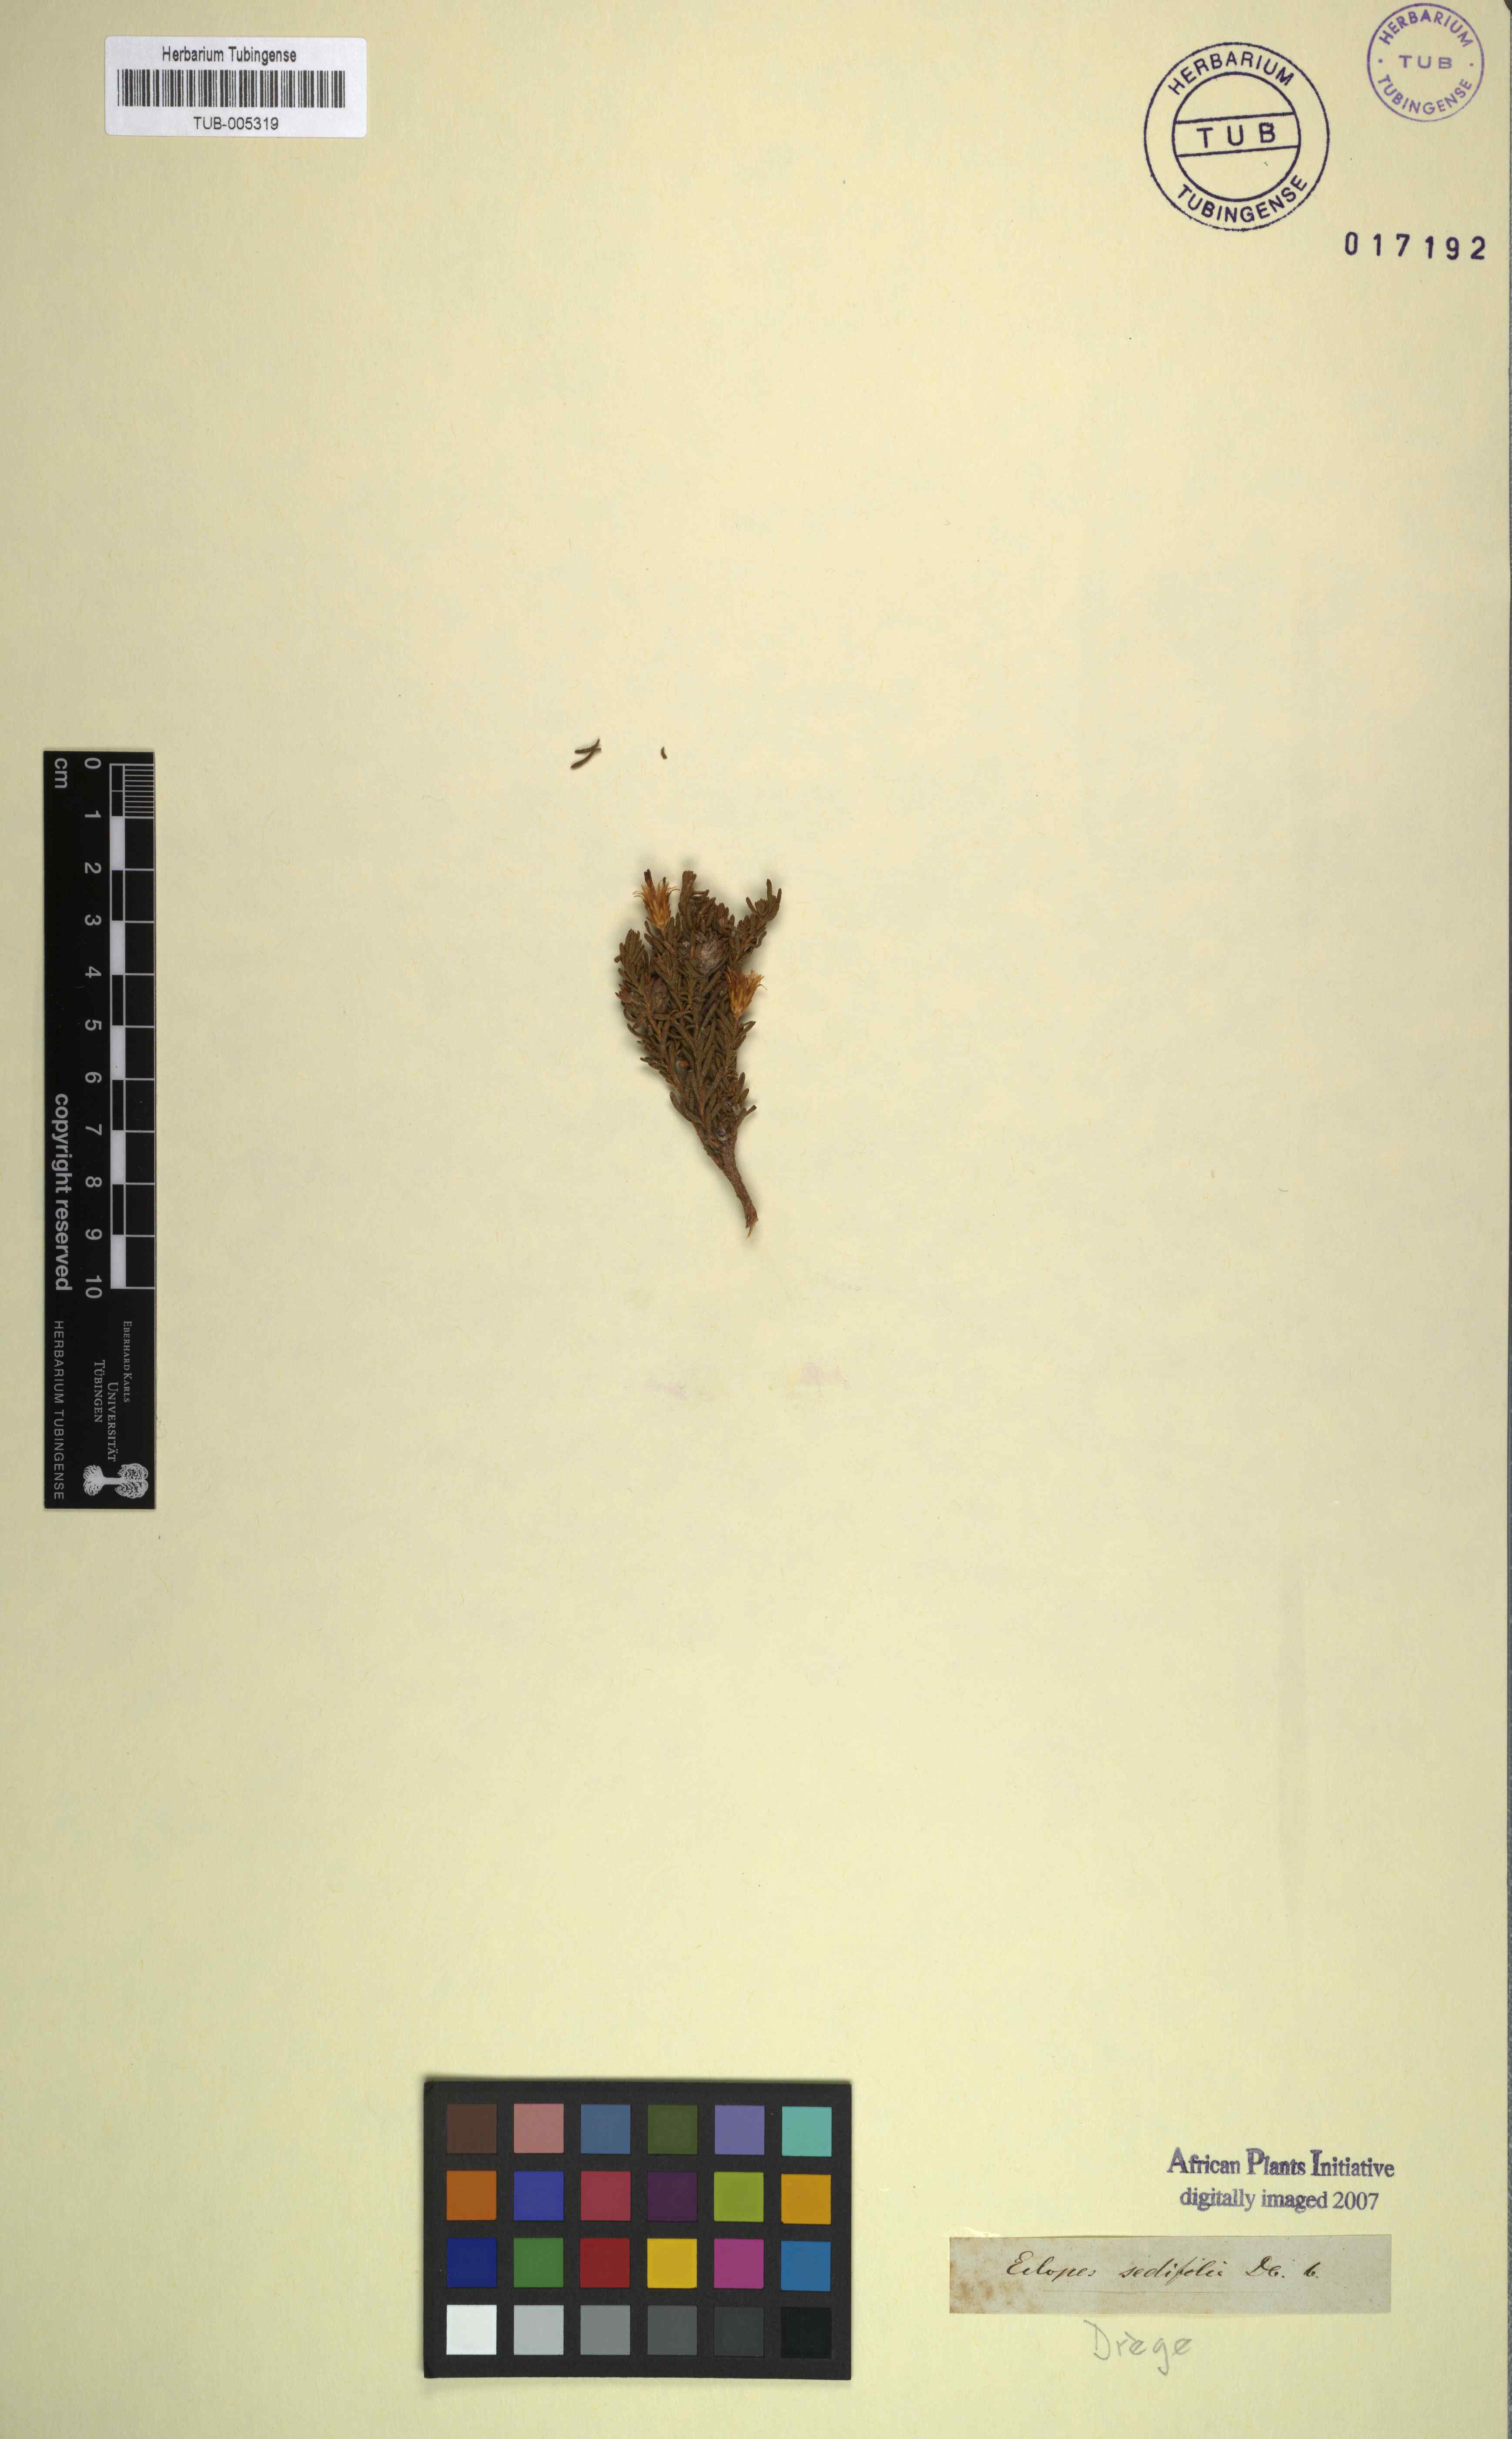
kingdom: Plantae
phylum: Tracheophyta
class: Magnoliopsida
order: Asterales
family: Asteraceae
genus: Oedera
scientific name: Oedera sedifolia
